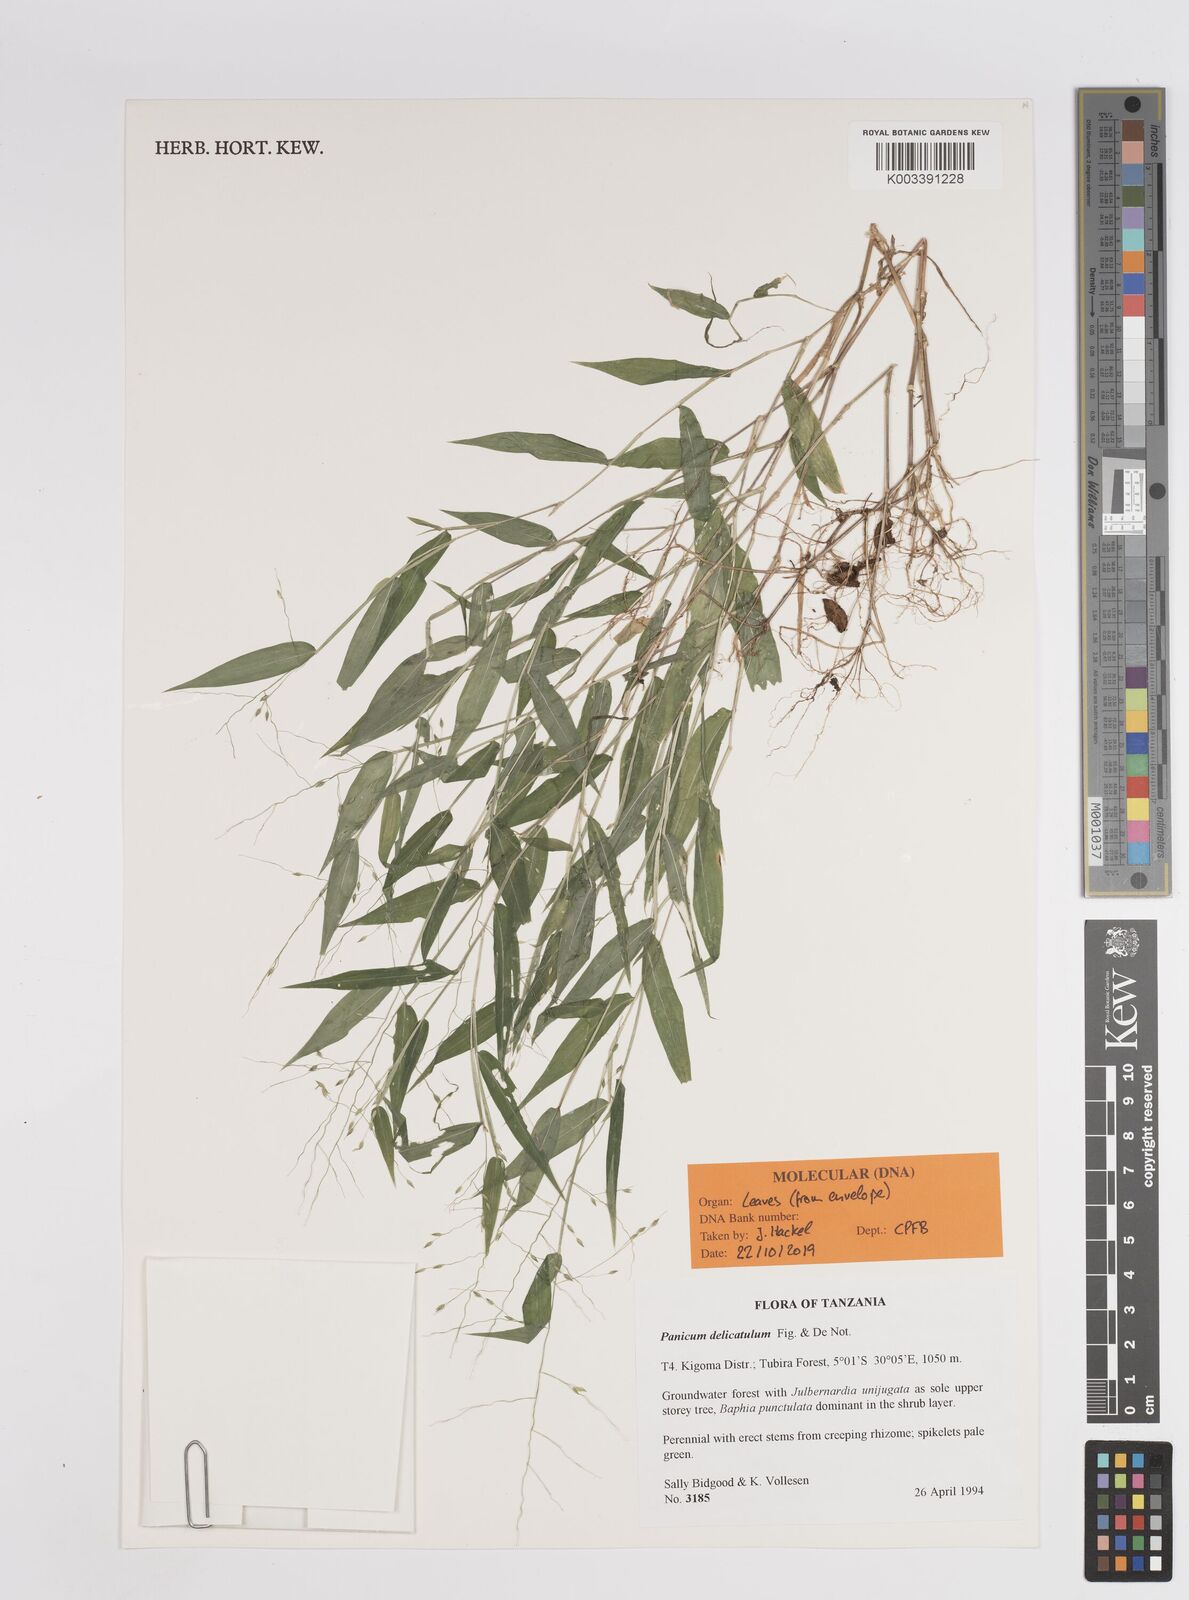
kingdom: Plantae
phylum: Tracheophyta
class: Liliopsida
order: Poales
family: Poaceae
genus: Panicum
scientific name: Panicum delicatulum
